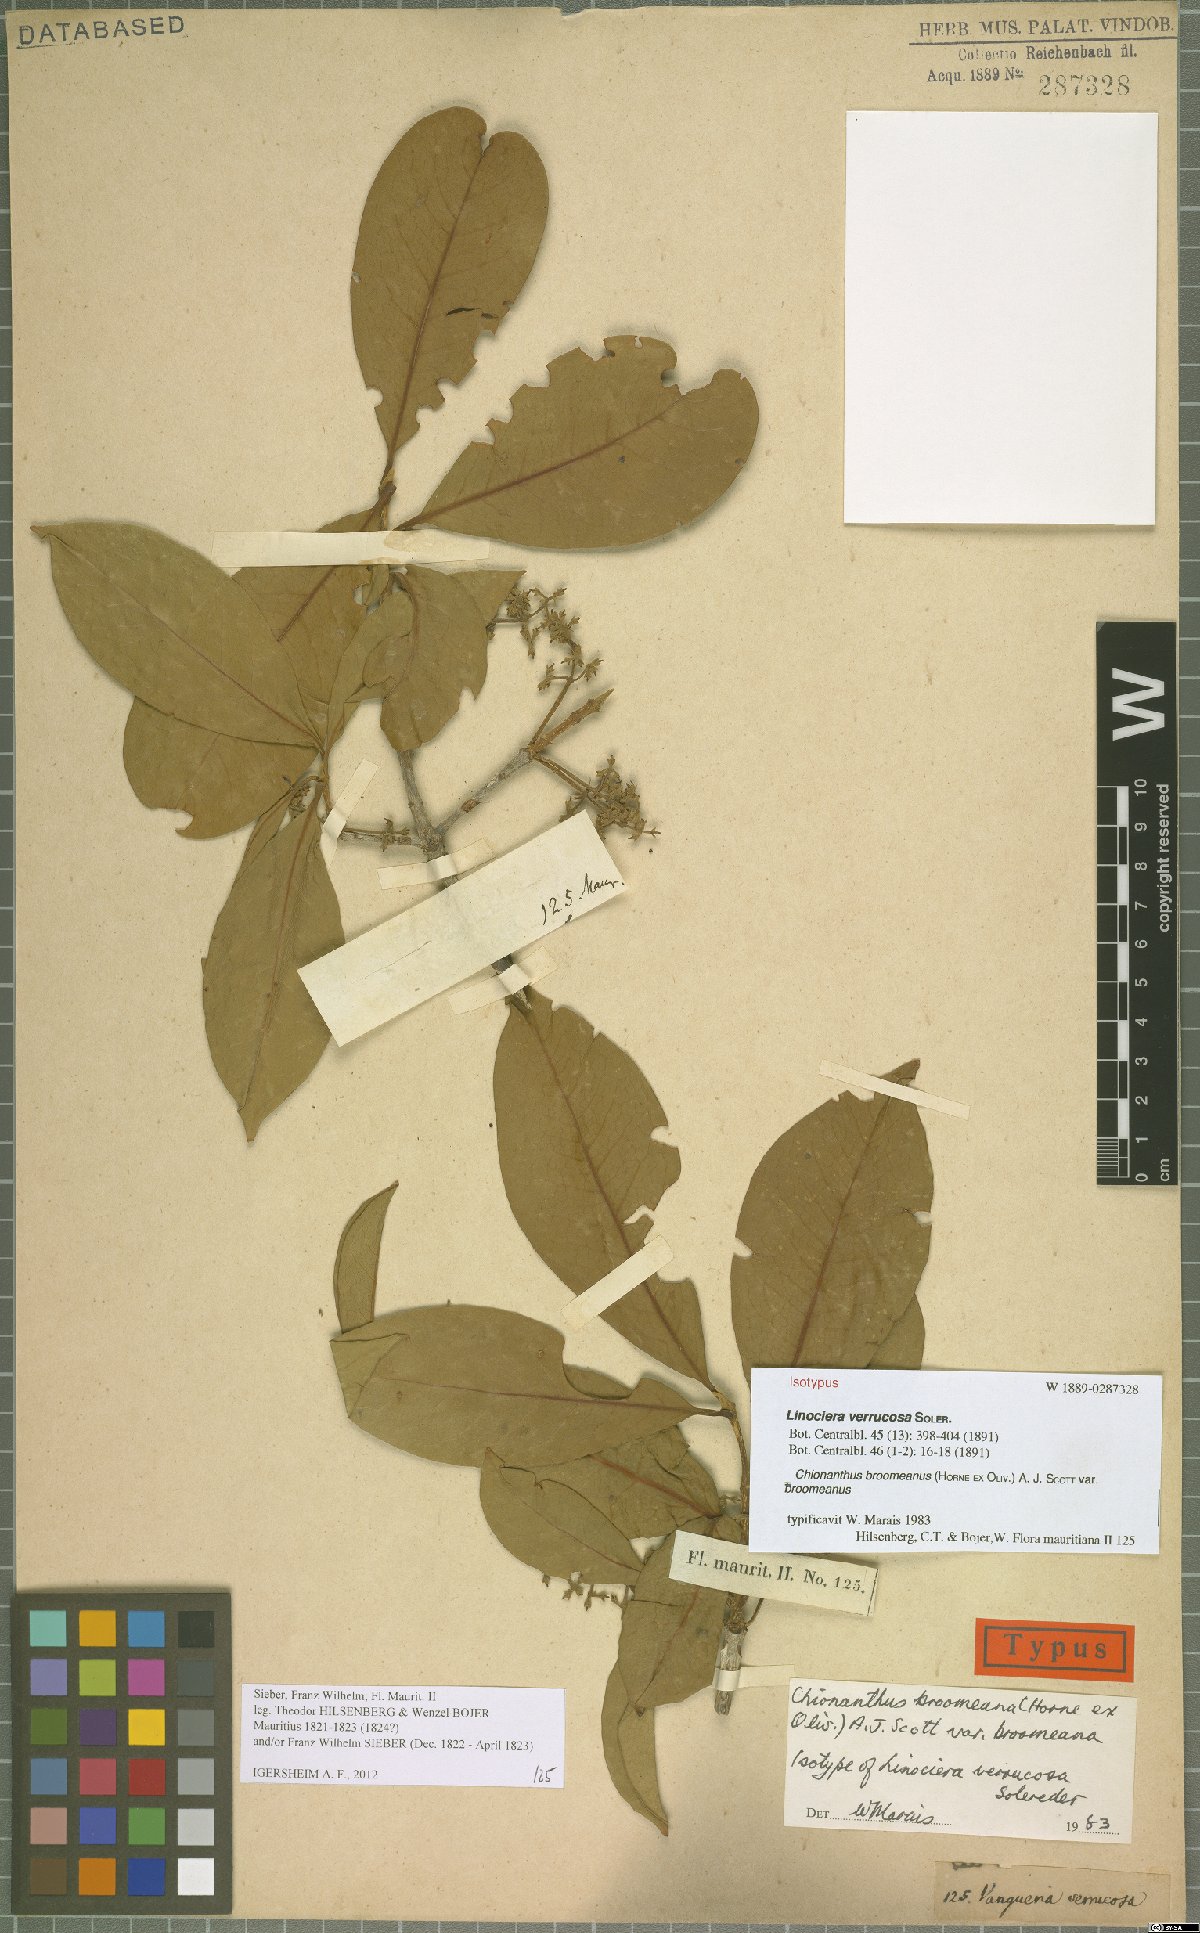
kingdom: Plantae
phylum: Tracheophyta
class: Magnoliopsida
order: Lamiales
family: Oleaceae
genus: Noronhia
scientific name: Noronhia broomeana
